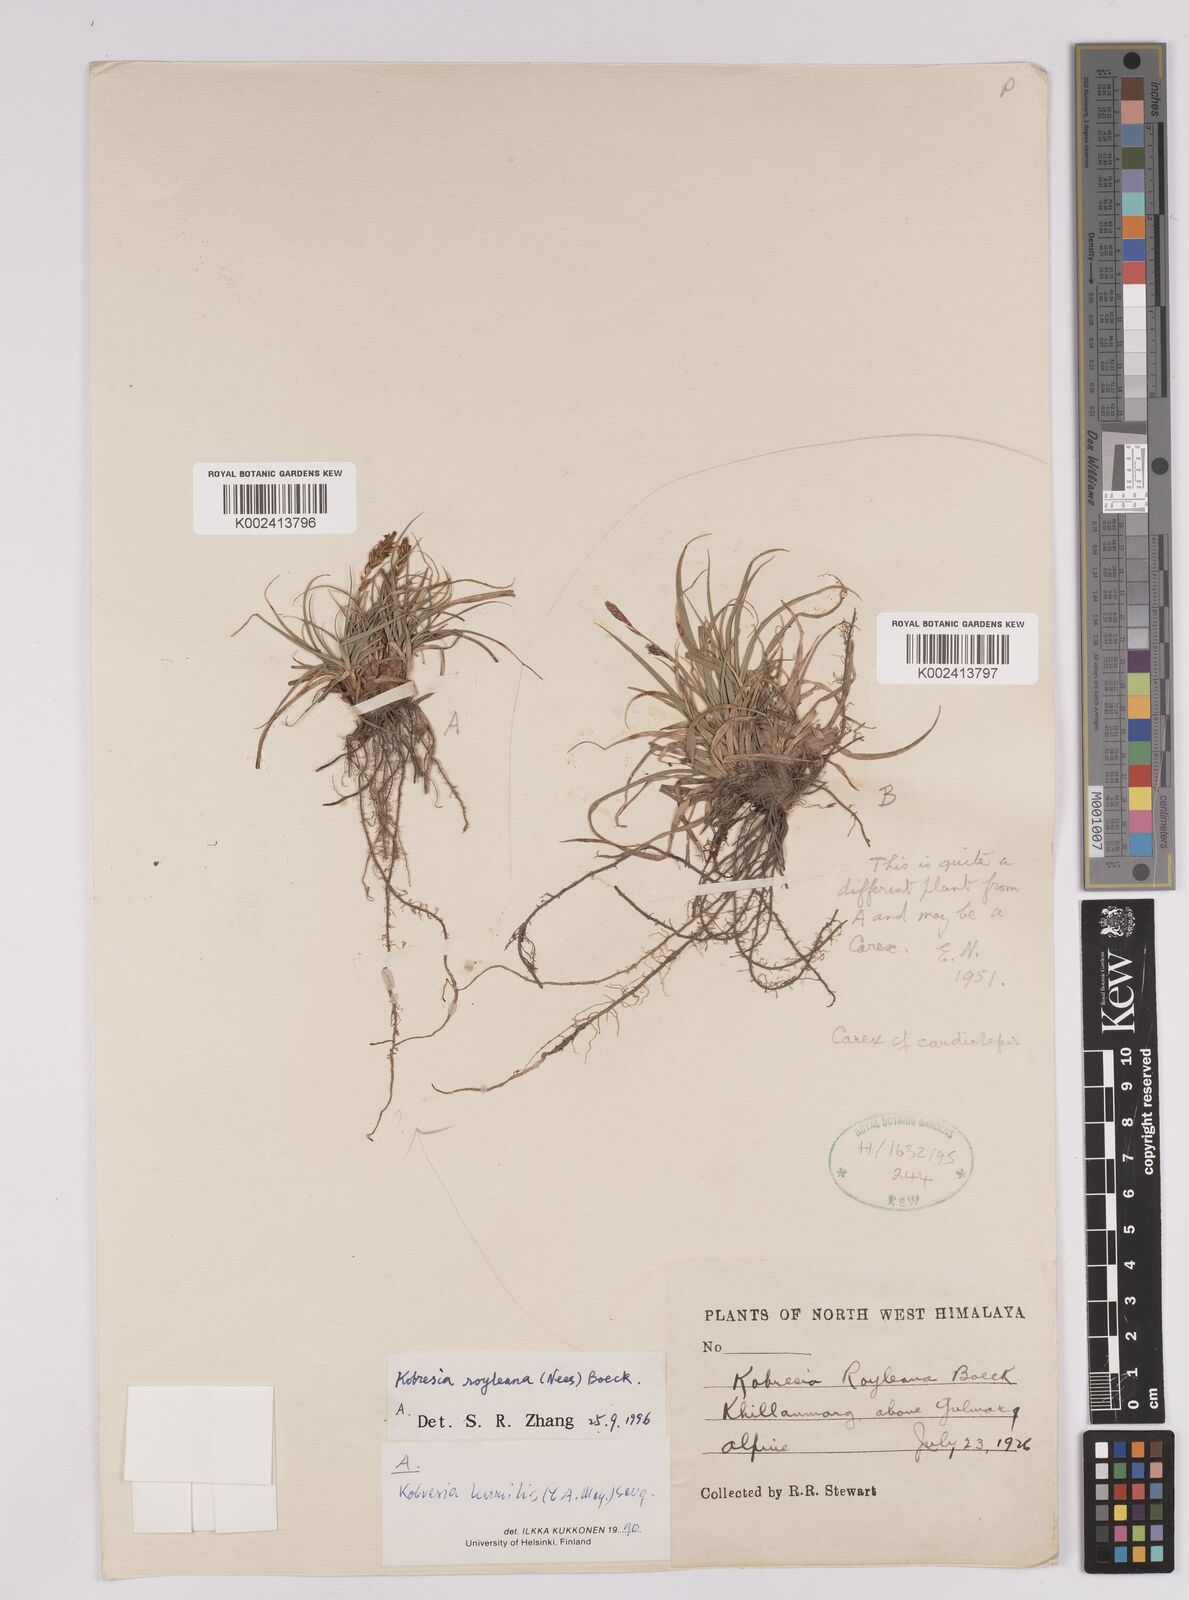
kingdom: Plantae
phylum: Tracheophyta
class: Liliopsida
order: Poales
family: Cyperaceae
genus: Carex
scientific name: Carex kokanica
